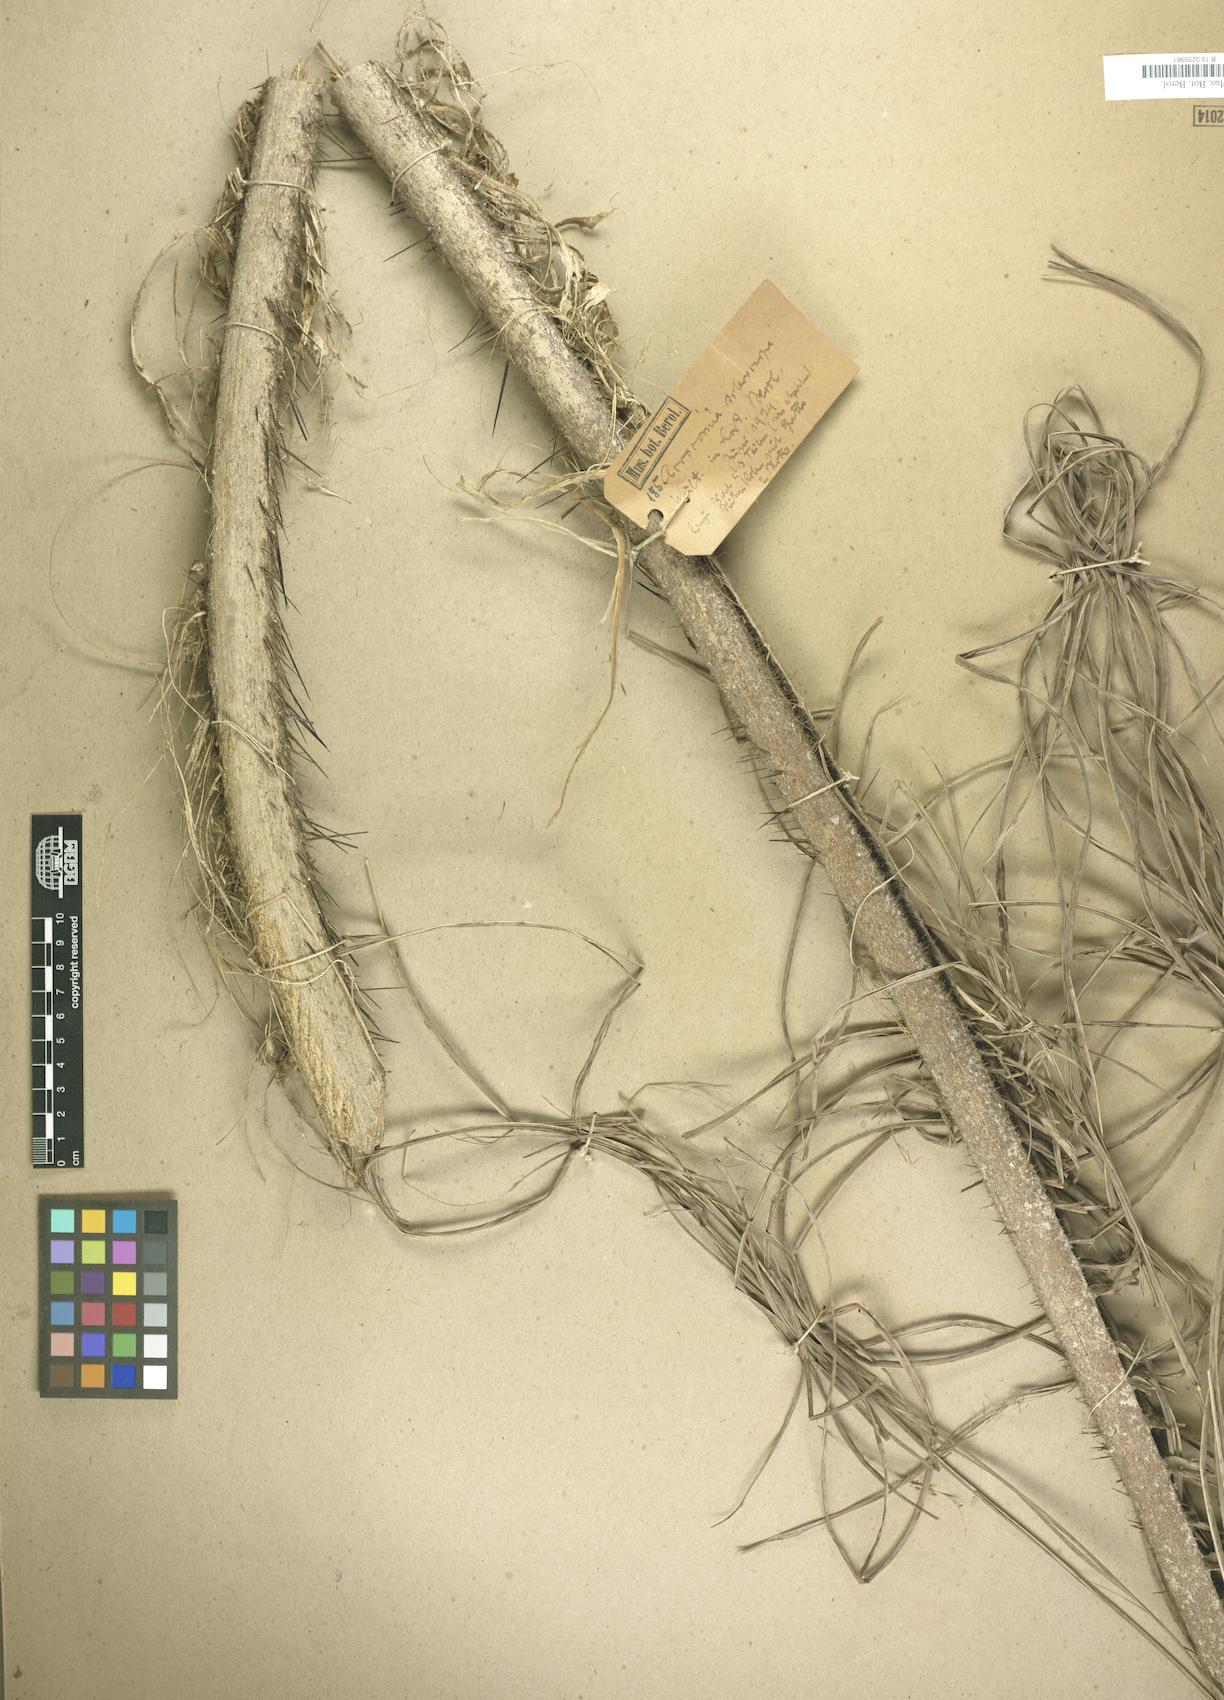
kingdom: Plantae
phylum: Tracheophyta
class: Liliopsida
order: Arecales
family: Arecaceae
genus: Acrocomia
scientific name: Acrocomia aculeata
